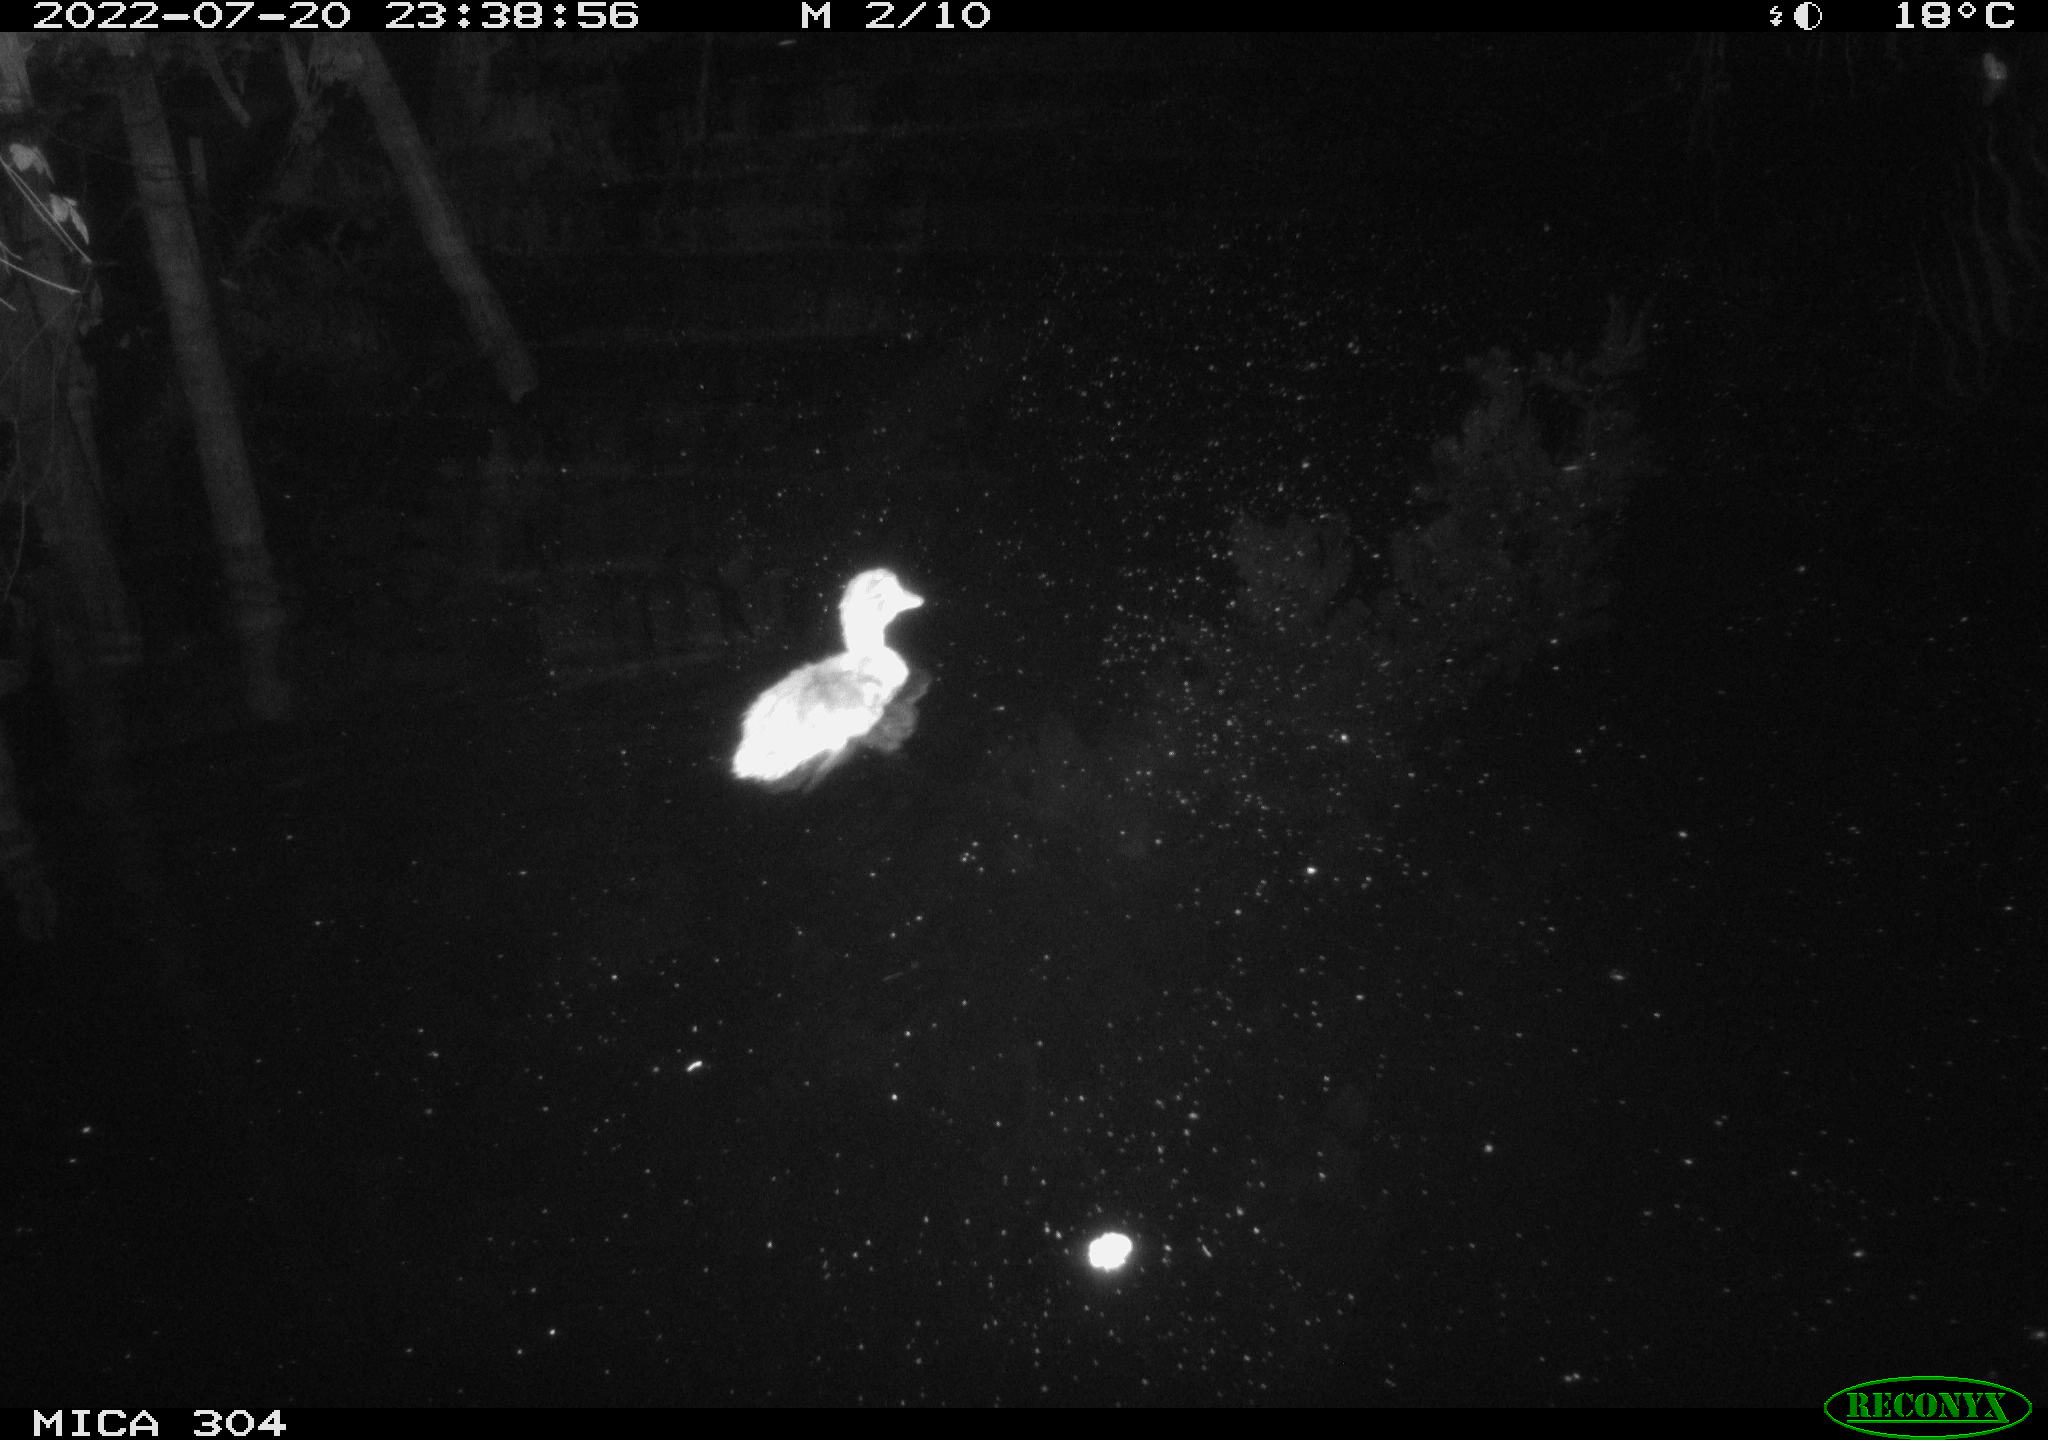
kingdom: Animalia
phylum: Chordata
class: Aves
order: Anseriformes
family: Anatidae
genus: Anas
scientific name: Anas platyrhynchos
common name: Mallard
